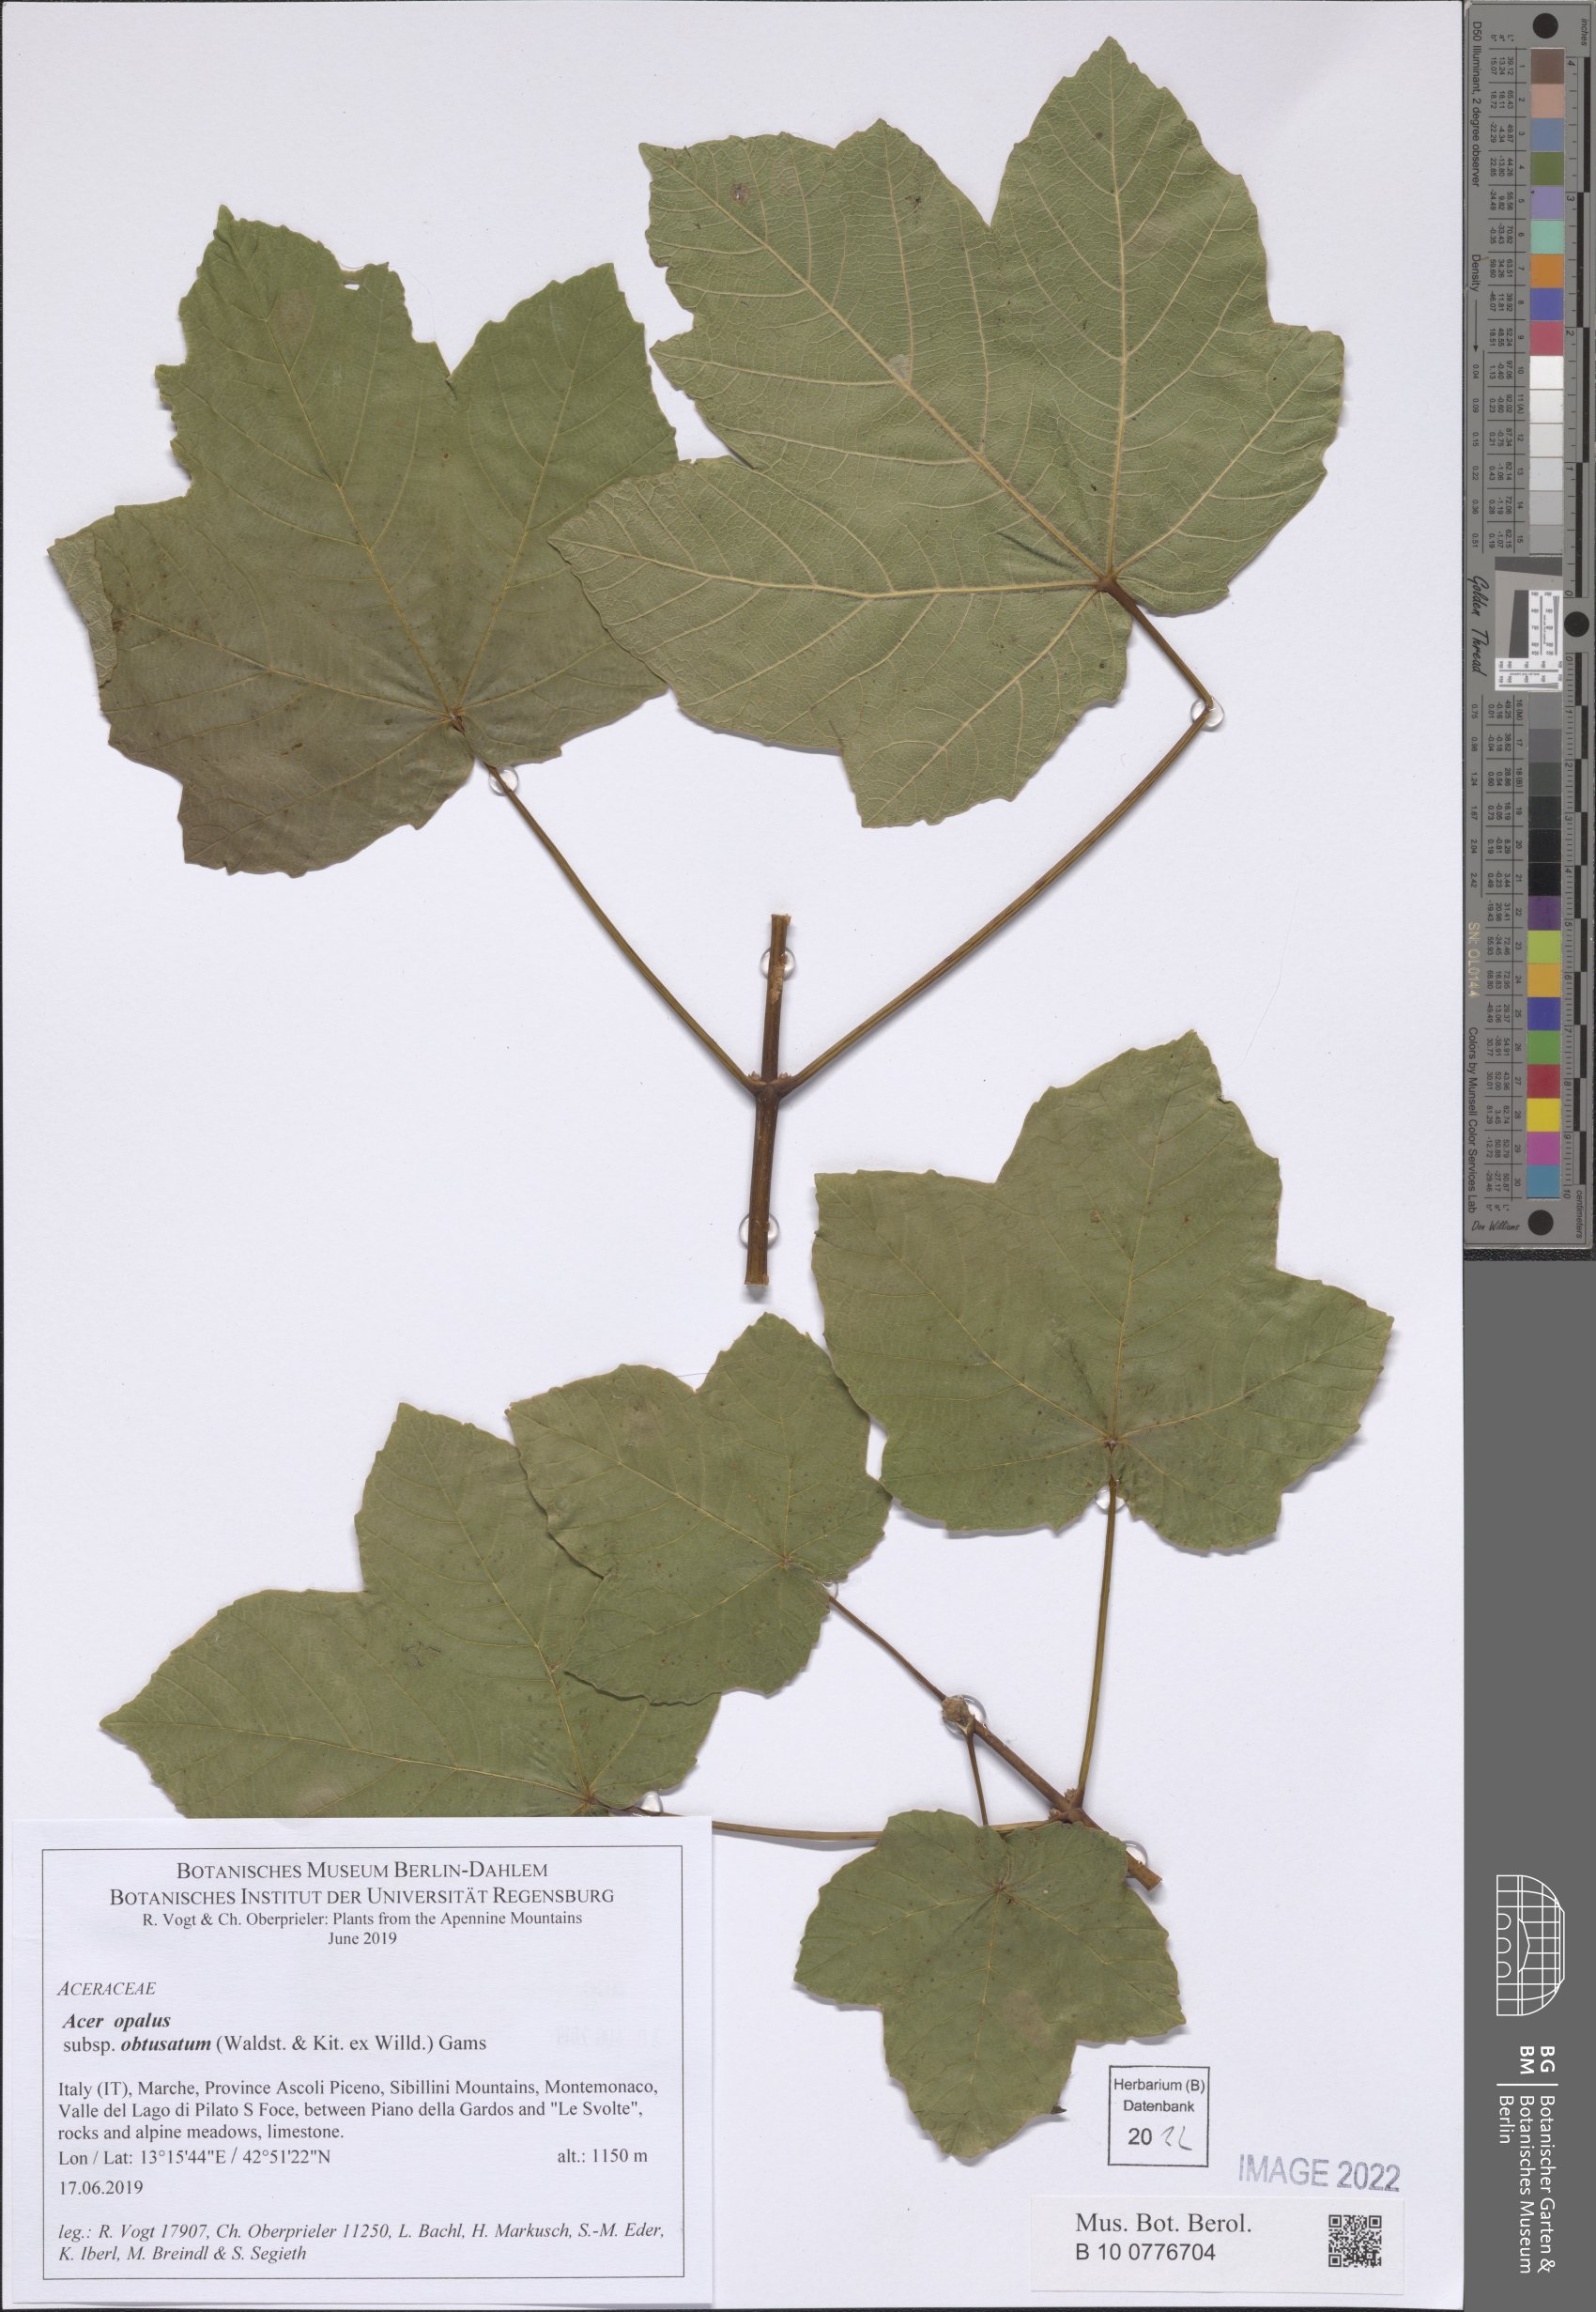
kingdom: Plantae
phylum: Tracheophyta
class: Magnoliopsida
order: Sapindales
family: Sapindaceae
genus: Acer
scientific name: Acer obtusatum
